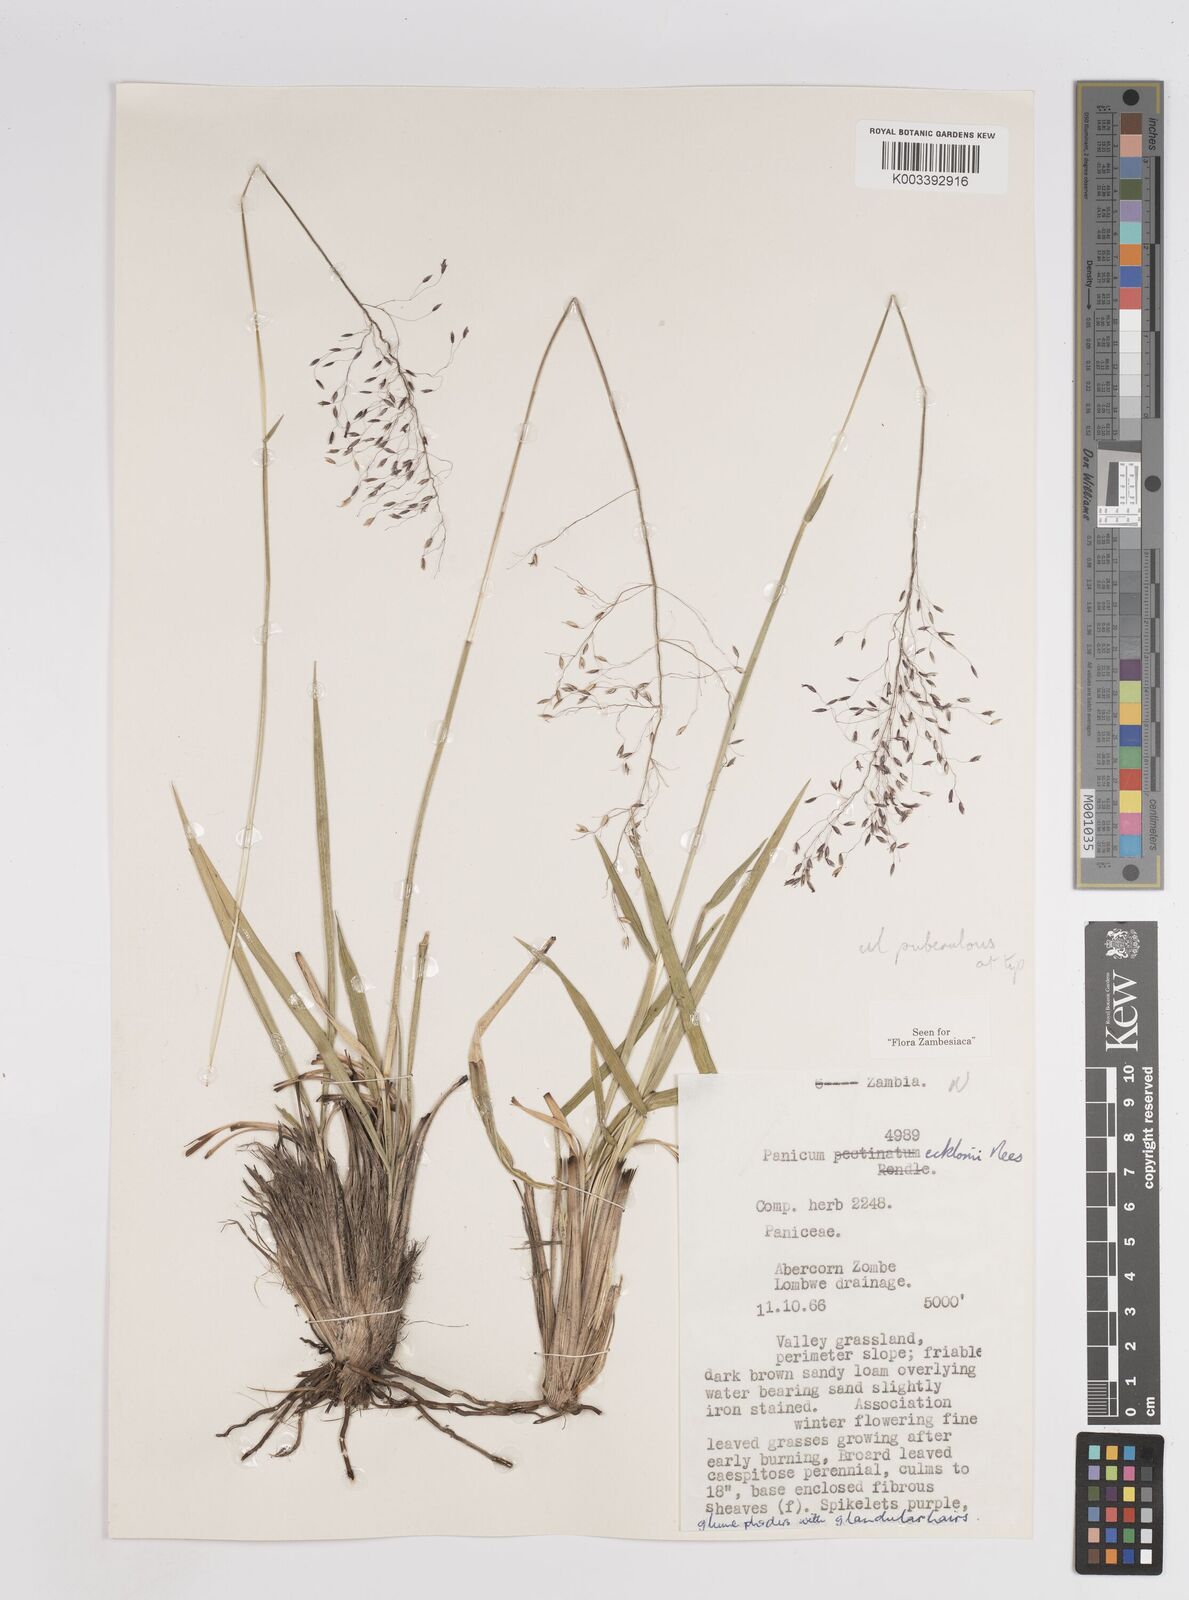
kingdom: Plantae
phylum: Tracheophyta
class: Liliopsida
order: Poales
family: Poaceae
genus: Adenochloa
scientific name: Adenochloa ecklonii
